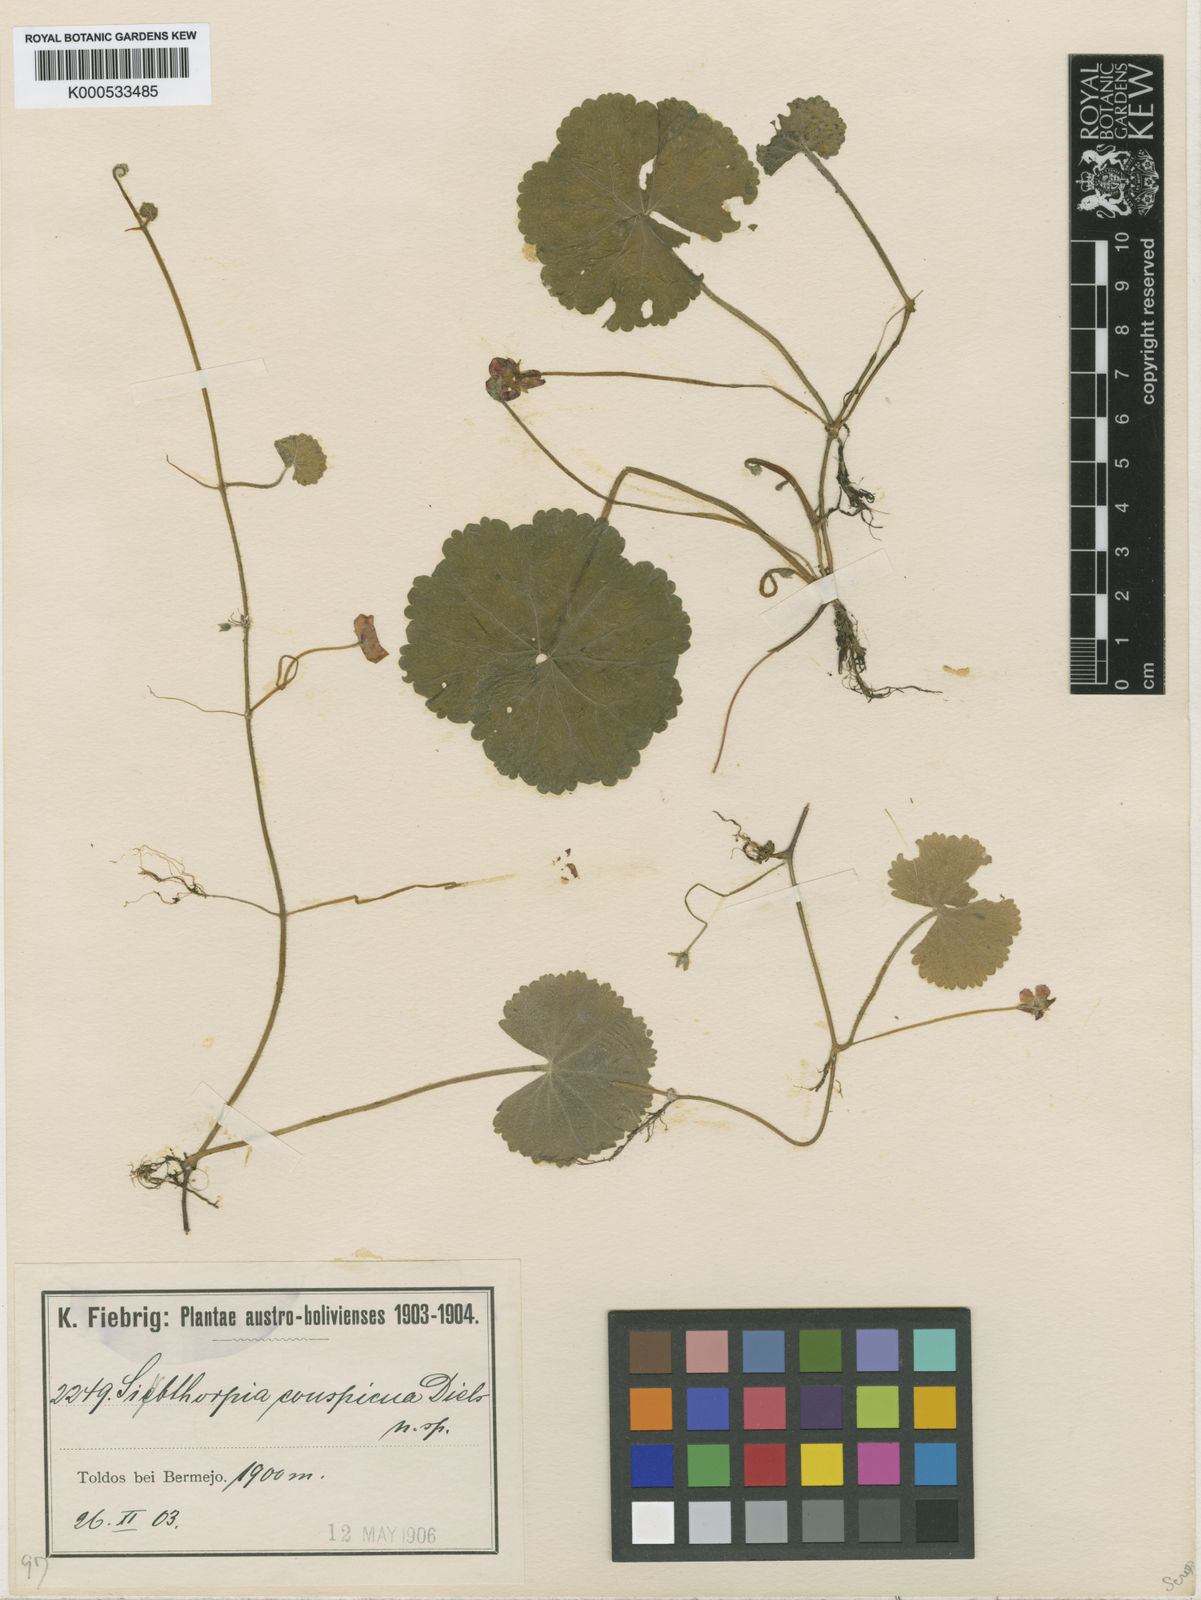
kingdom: Plantae
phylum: Tracheophyta
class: Magnoliopsida
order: Lamiales
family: Plantaginaceae
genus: Sibthorpia
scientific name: Sibthorpia conspicua
